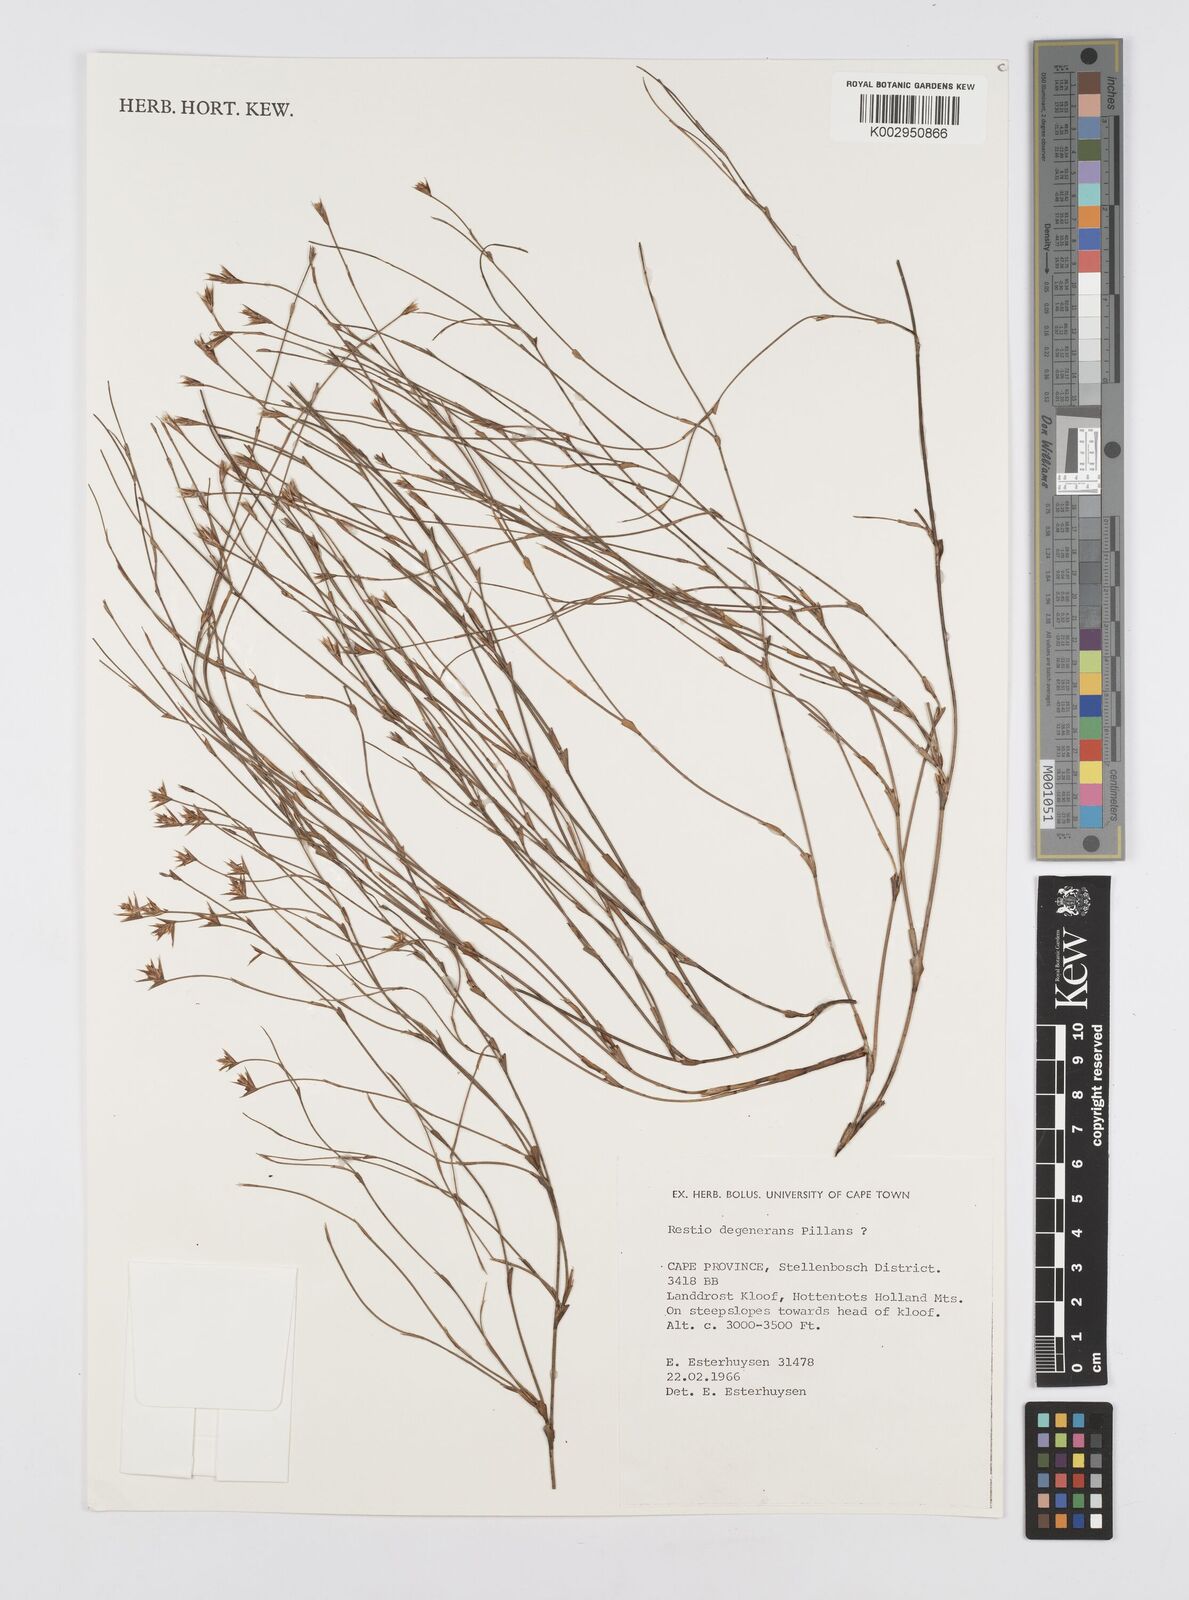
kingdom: Plantae
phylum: Tracheophyta
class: Liliopsida
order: Poales
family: Restionaceae
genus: Restio
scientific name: Restio degenerans
